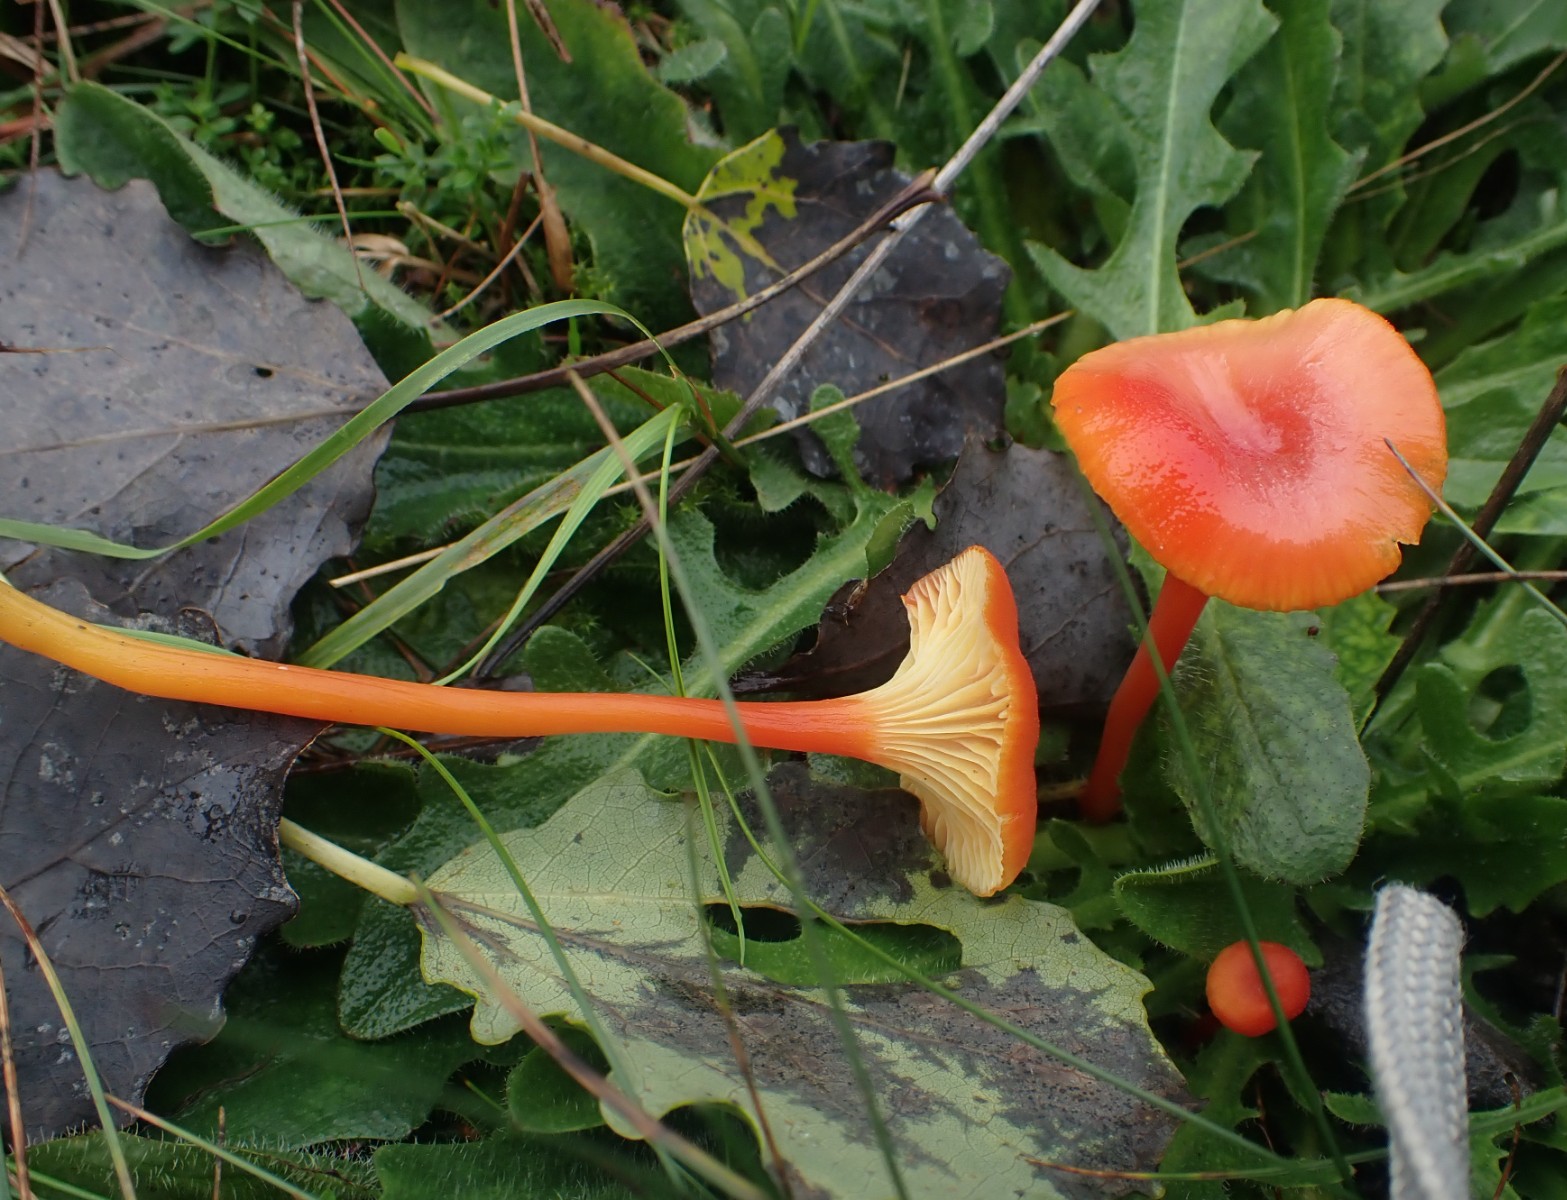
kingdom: Fungi
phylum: Basidiomycota
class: Agaricomycetes
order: Agaricales
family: Hygrophoraceae
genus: Hygrocybe
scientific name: Hygrocybe cantharellus
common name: kantarel-vokshat
